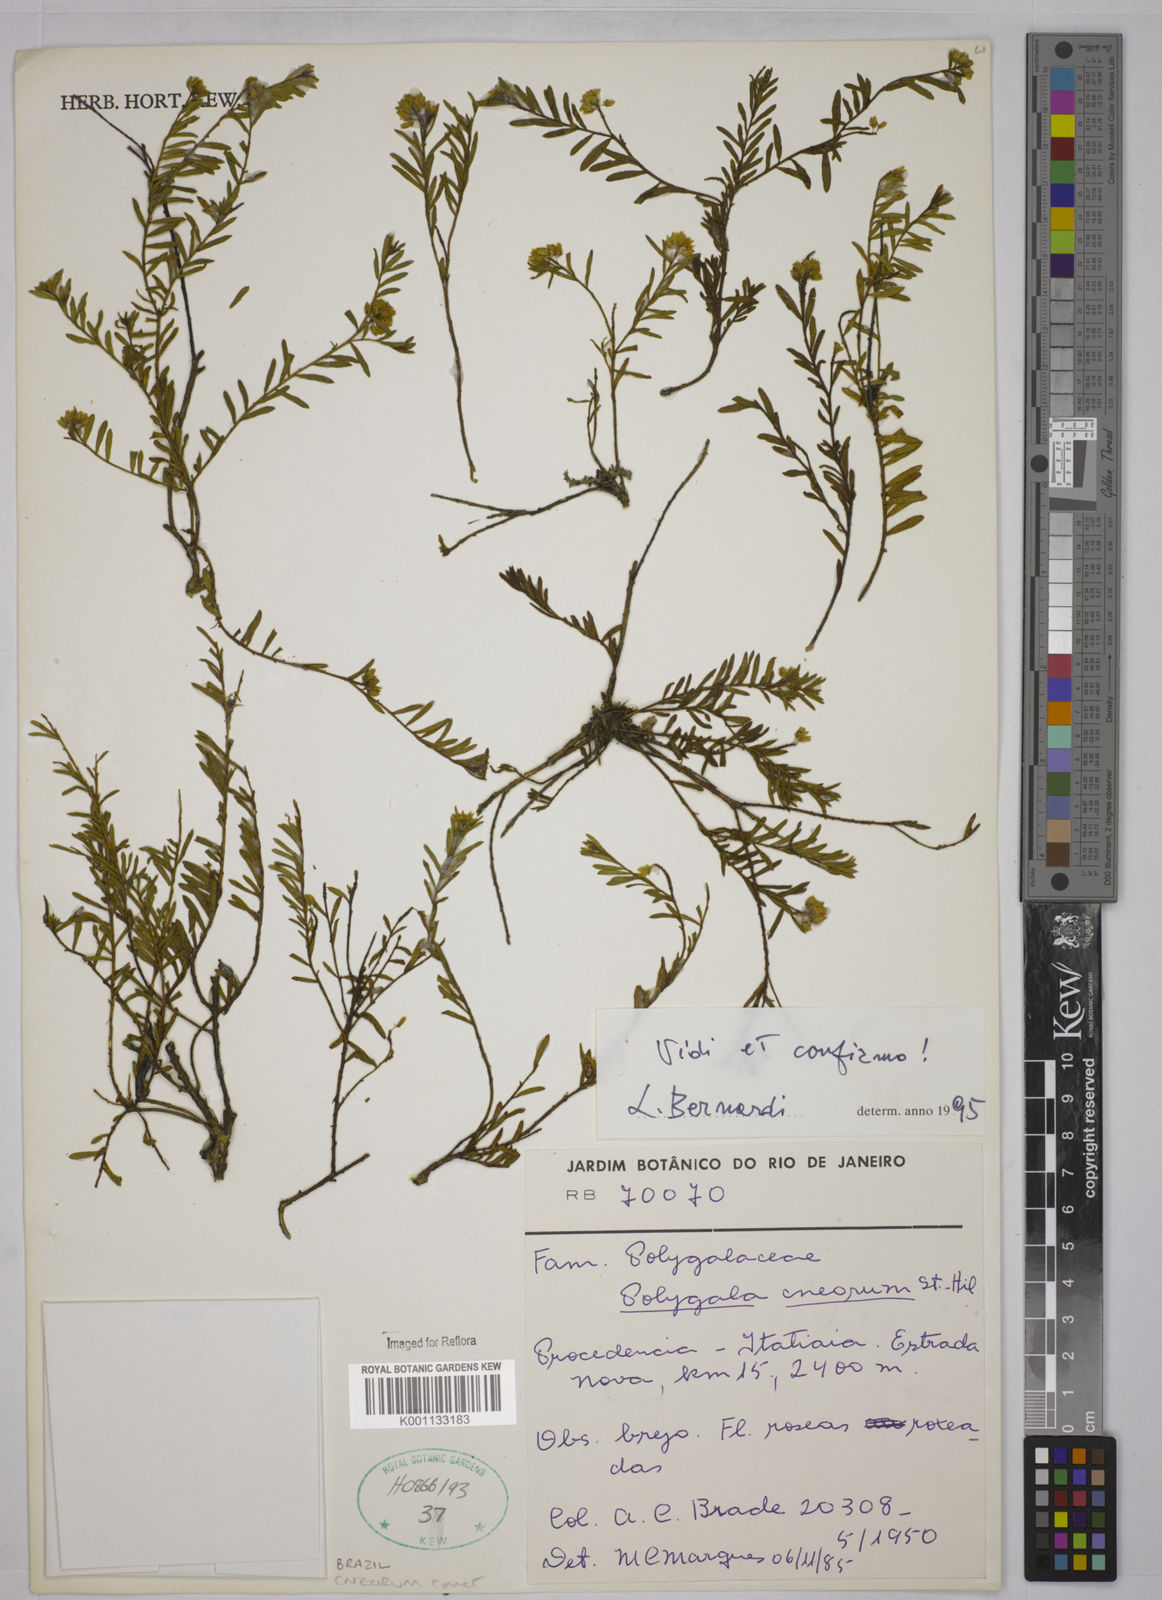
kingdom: Plantae
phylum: Tracheophyta
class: Magnoliopsida
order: Fabales
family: Polygalaceae
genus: Polygala
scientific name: Polygala cneorum
